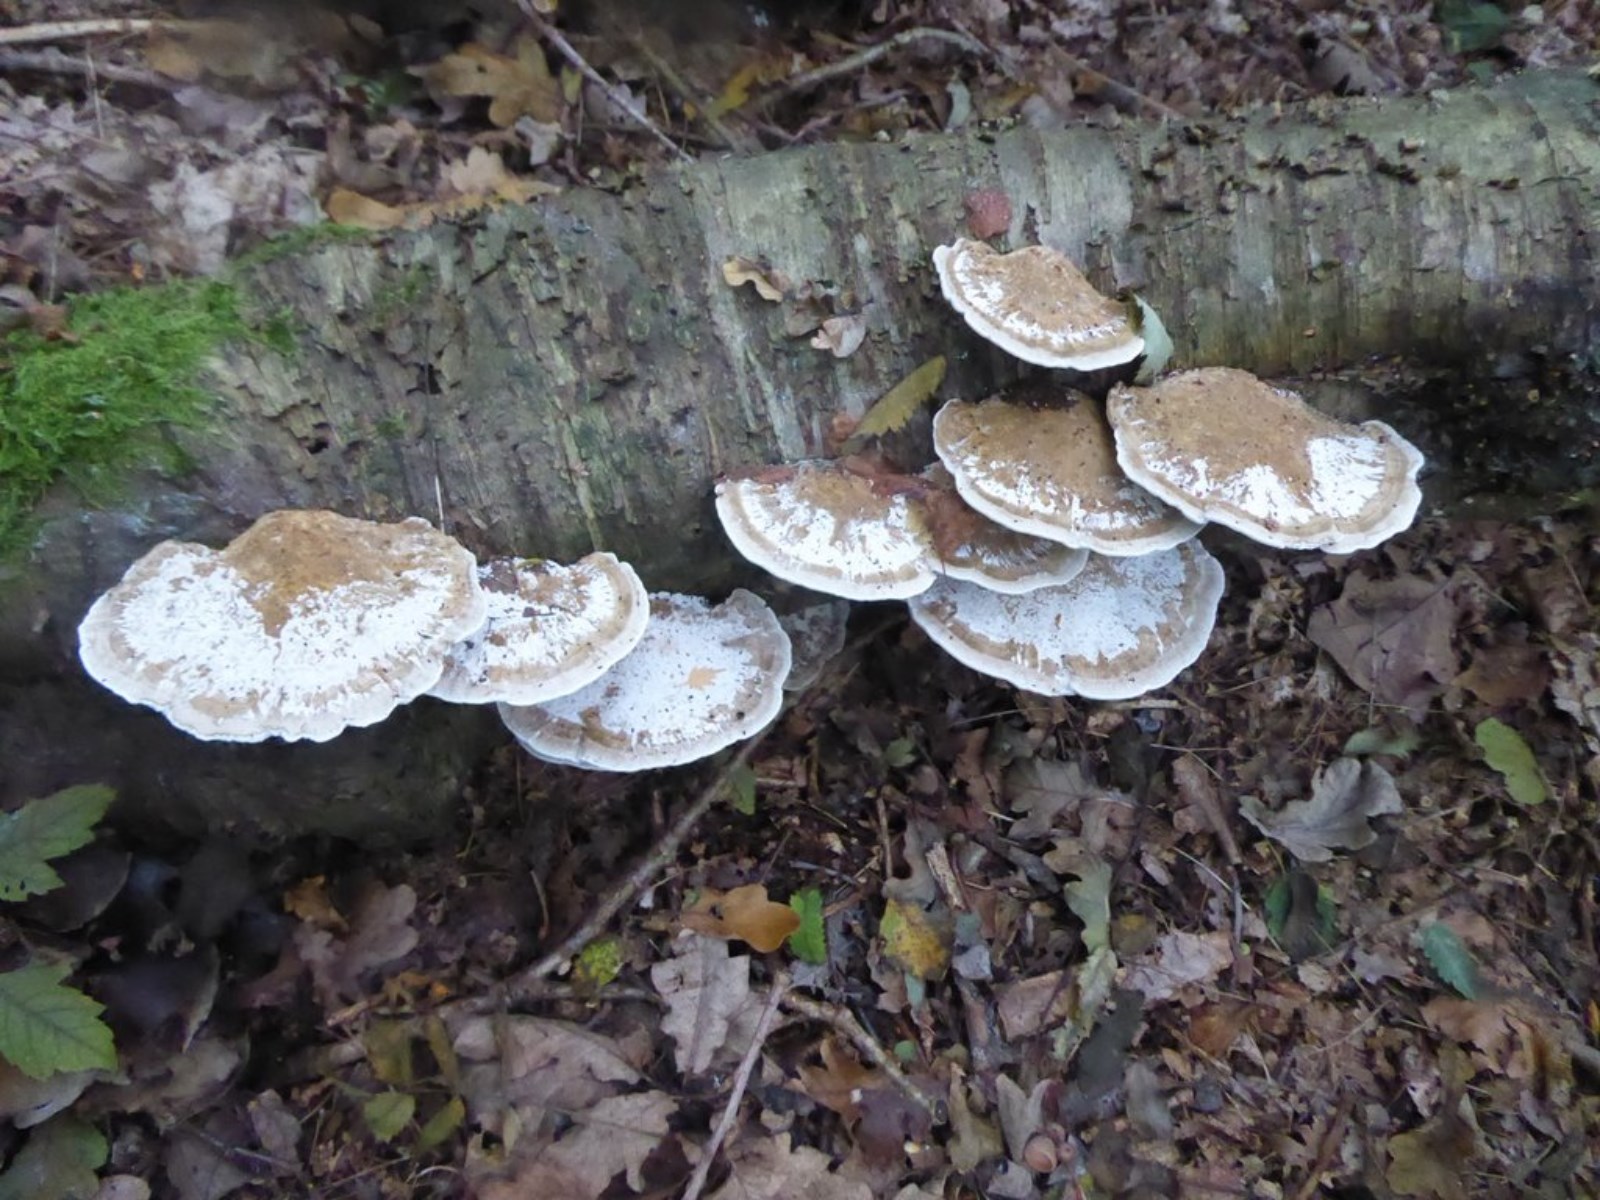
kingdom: Fungi
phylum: Basidiomycota
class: Agaricomycetes
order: Polyporales
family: Polyporaceae
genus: Daedaleopsis
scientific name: Daedaleopsis confragosa
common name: rødmende læderporesvamp
